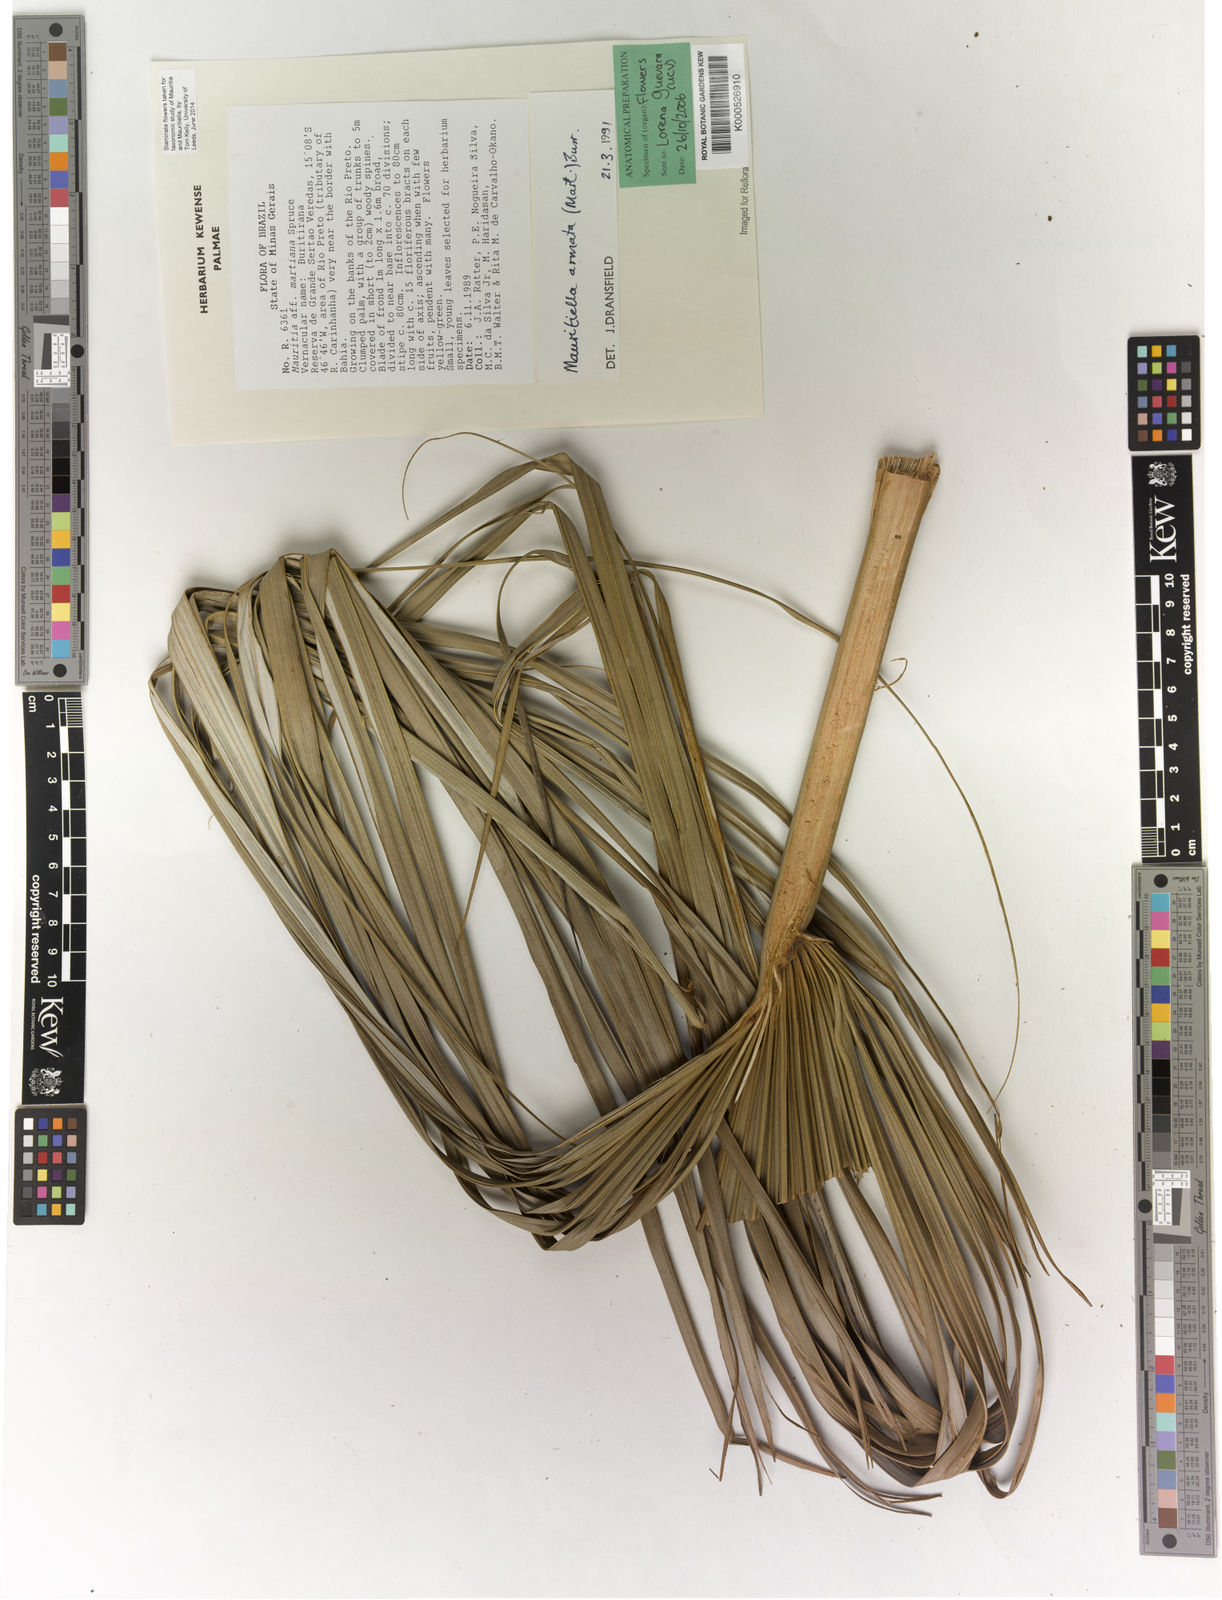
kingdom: Plantae
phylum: Tracheophyta
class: Liliopsida
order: Arecales
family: Arecaceae
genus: Mauritiella
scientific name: Mauritiella armata
